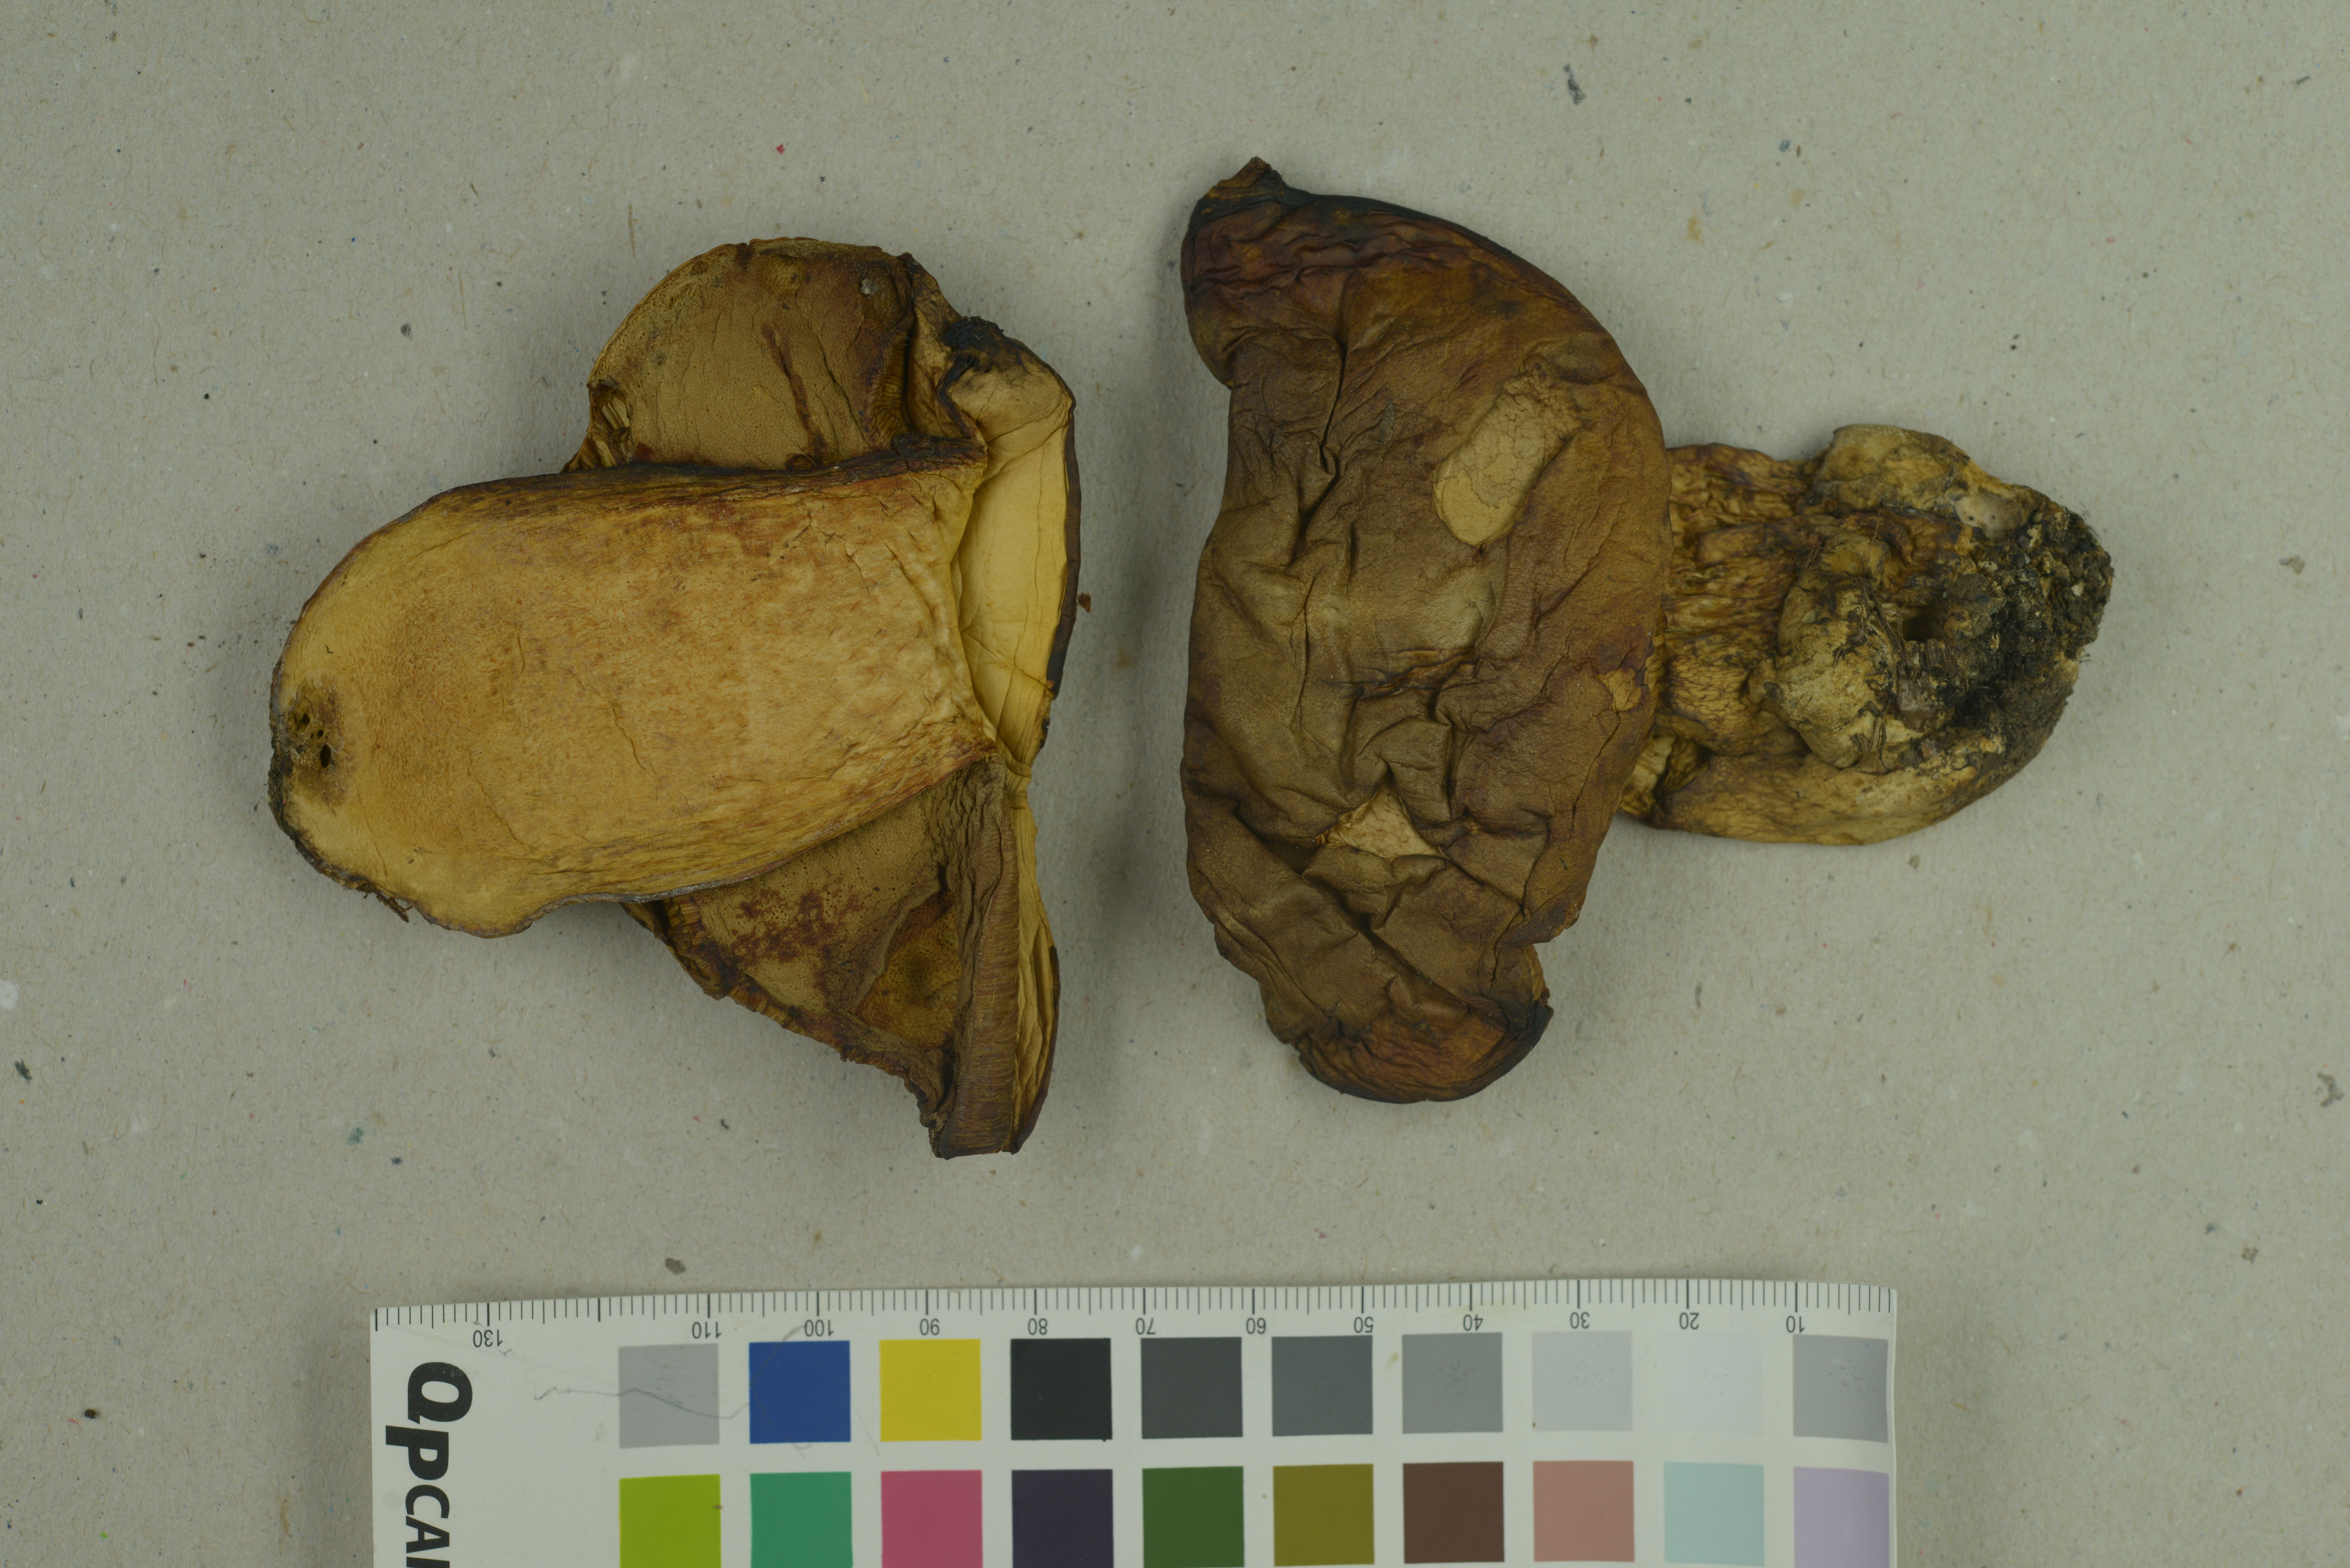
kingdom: Fungi
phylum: Basidiomycota
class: Agaricomycetes
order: Boletales
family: Boletaceae
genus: Butyriboletus
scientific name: Butyriboletus subappendiculatus
